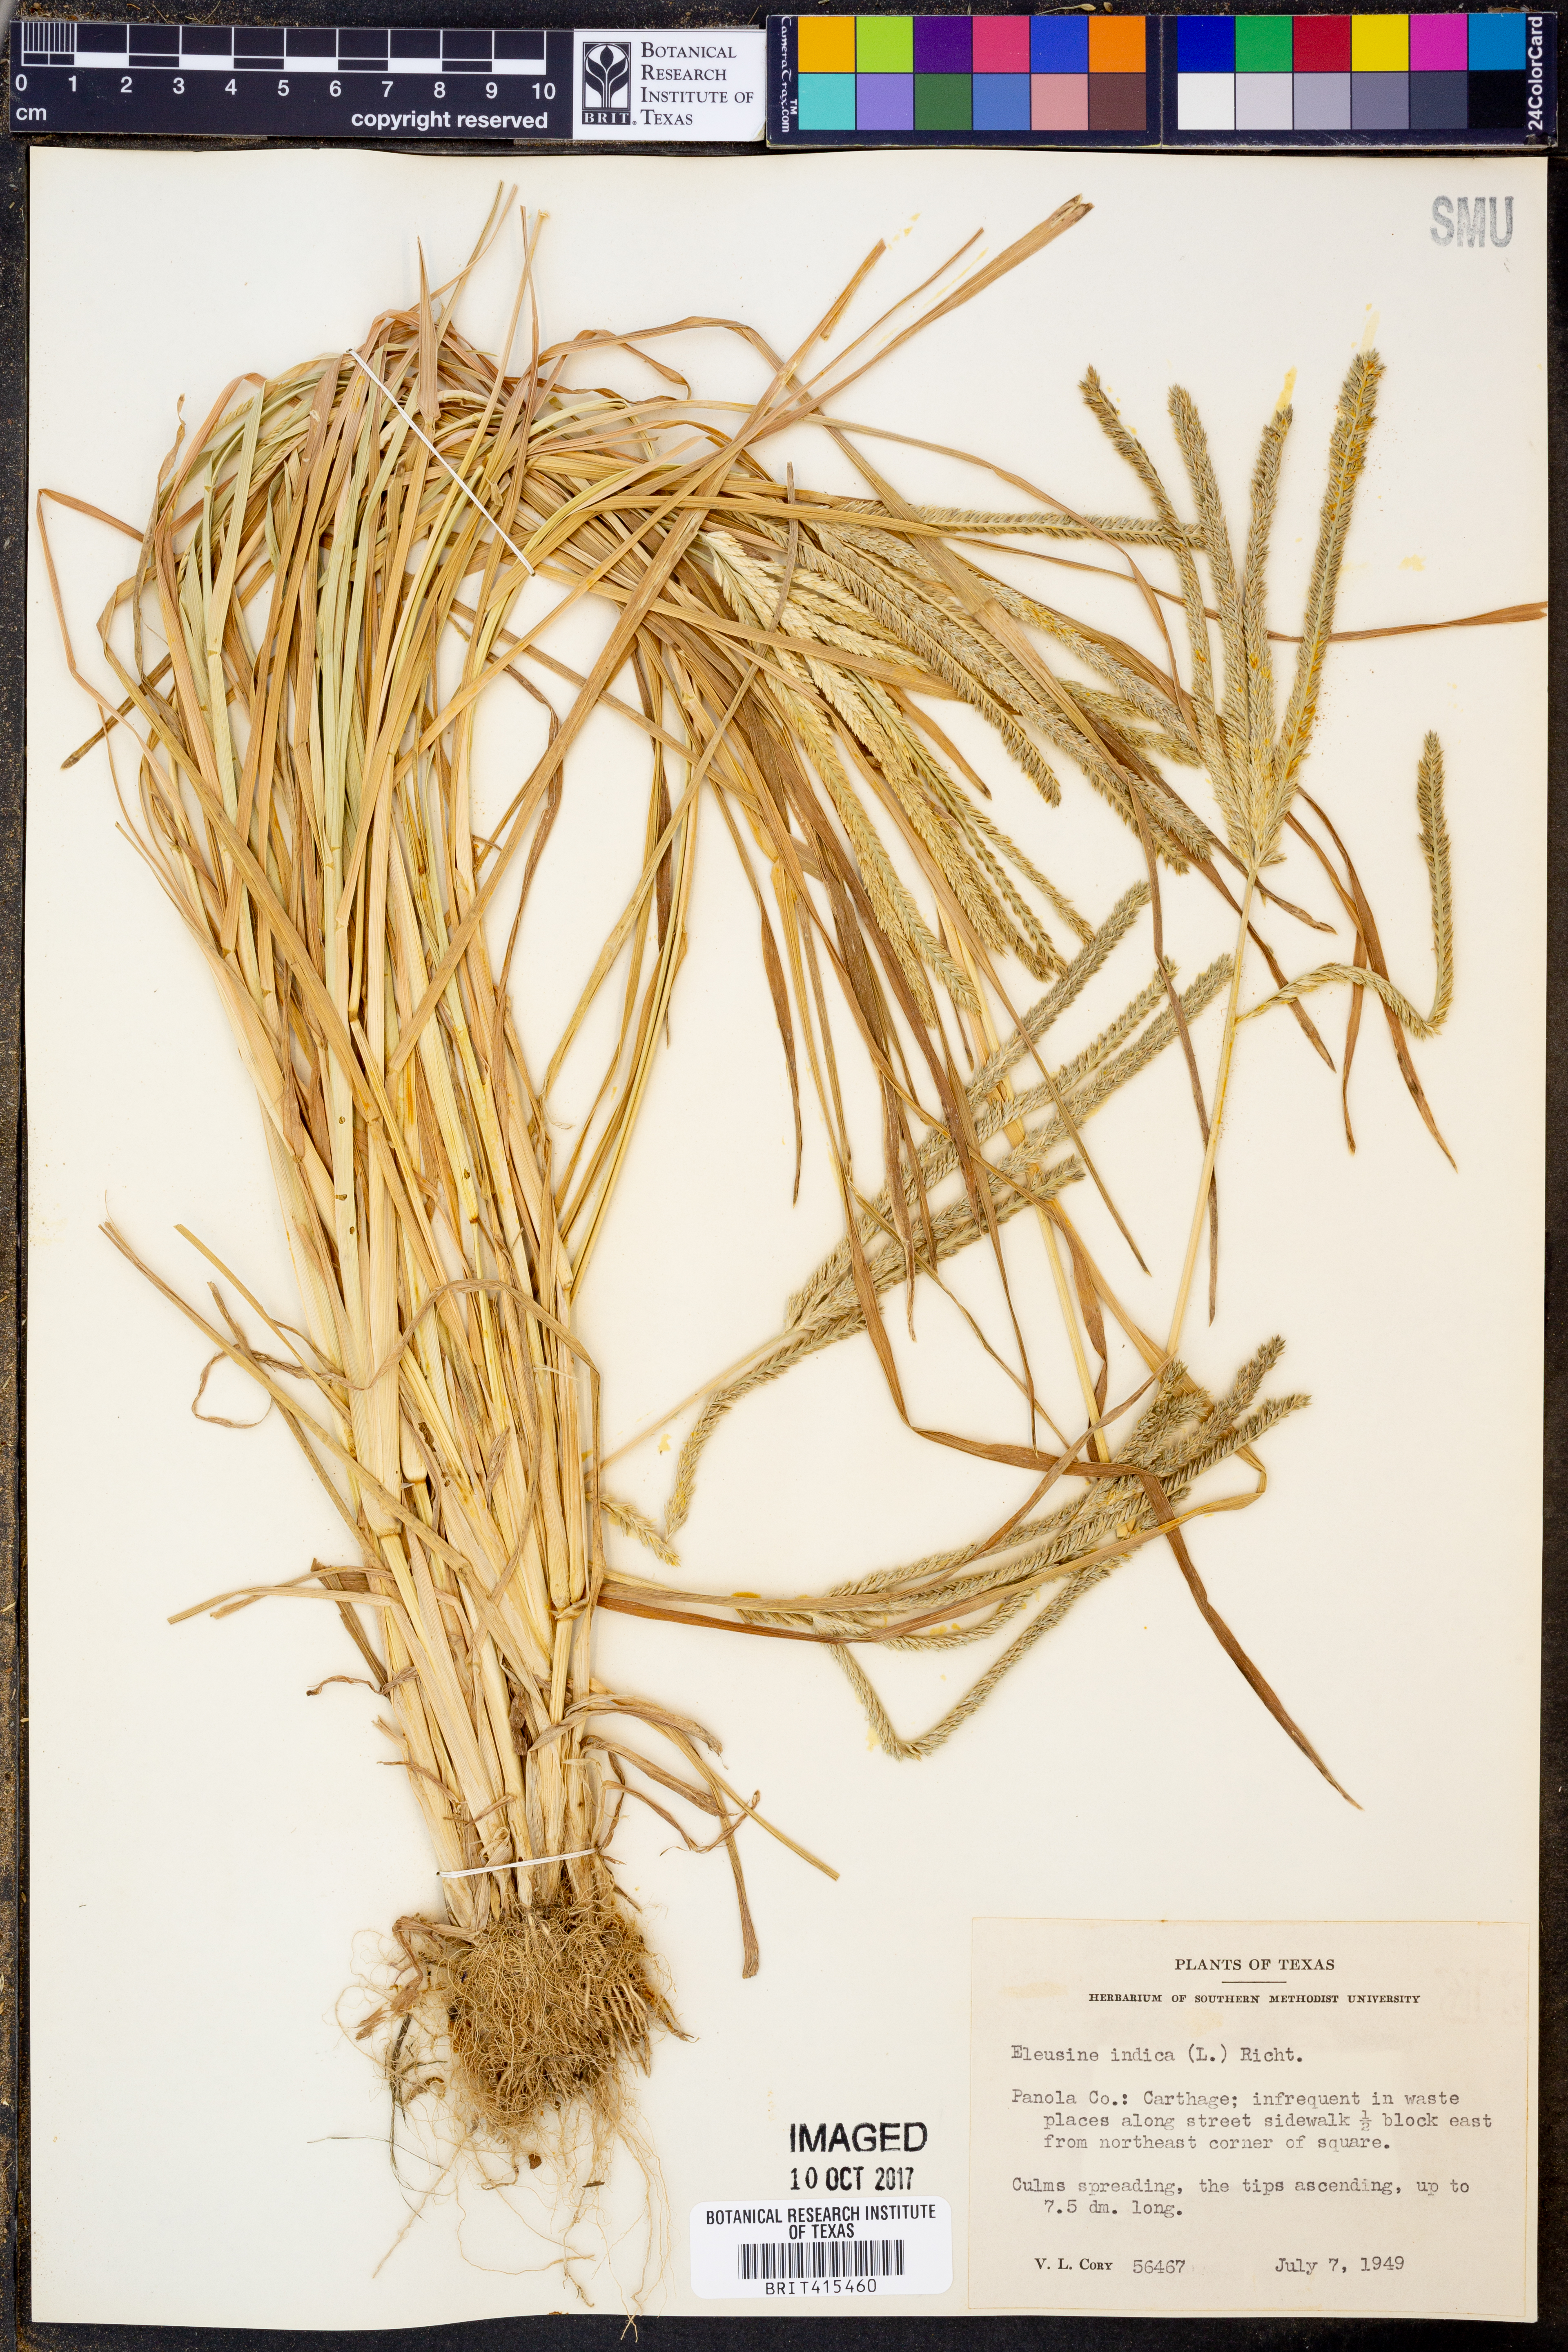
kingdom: Plantae
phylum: Tracheophyta
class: Liliopsida
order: Poales
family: Poaceae
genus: Eleusine
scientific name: Eleusine indica
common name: Yard-grass
